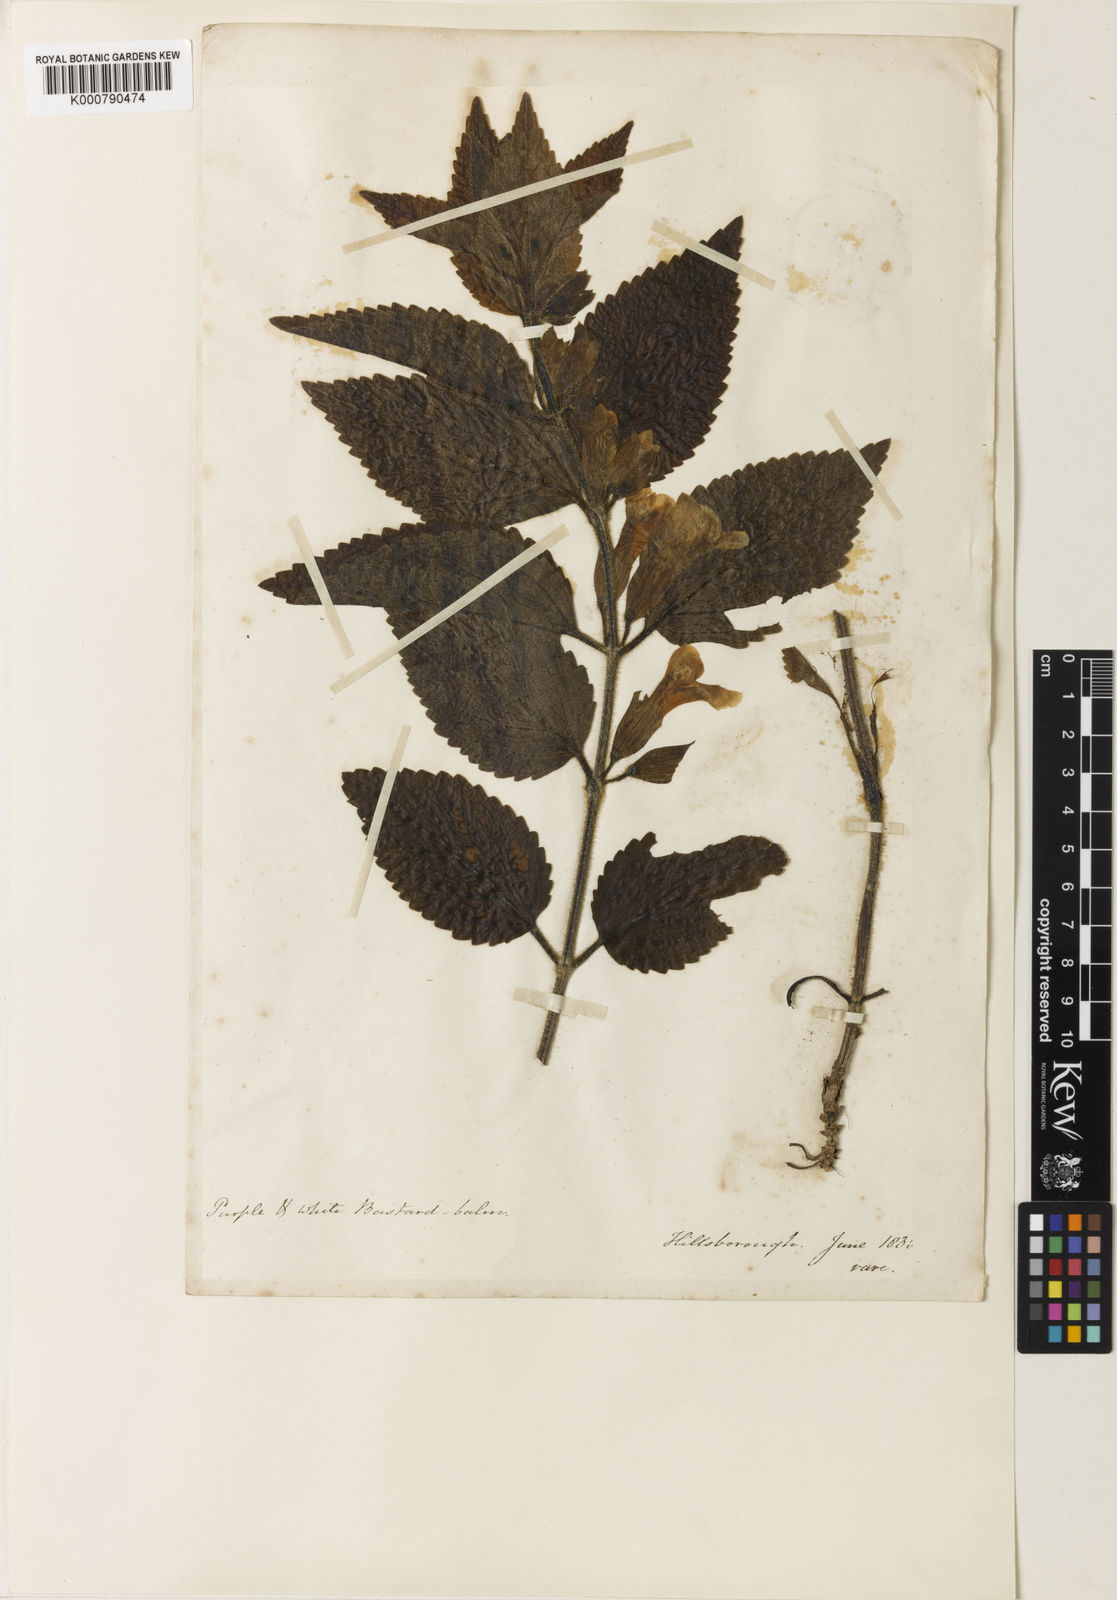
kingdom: Plantae
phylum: Tracheophyta
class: Magnoliopsida
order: Lamiales
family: Lamiaceae
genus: Melittis
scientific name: Melittis melissophyllum
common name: Bastard balm
